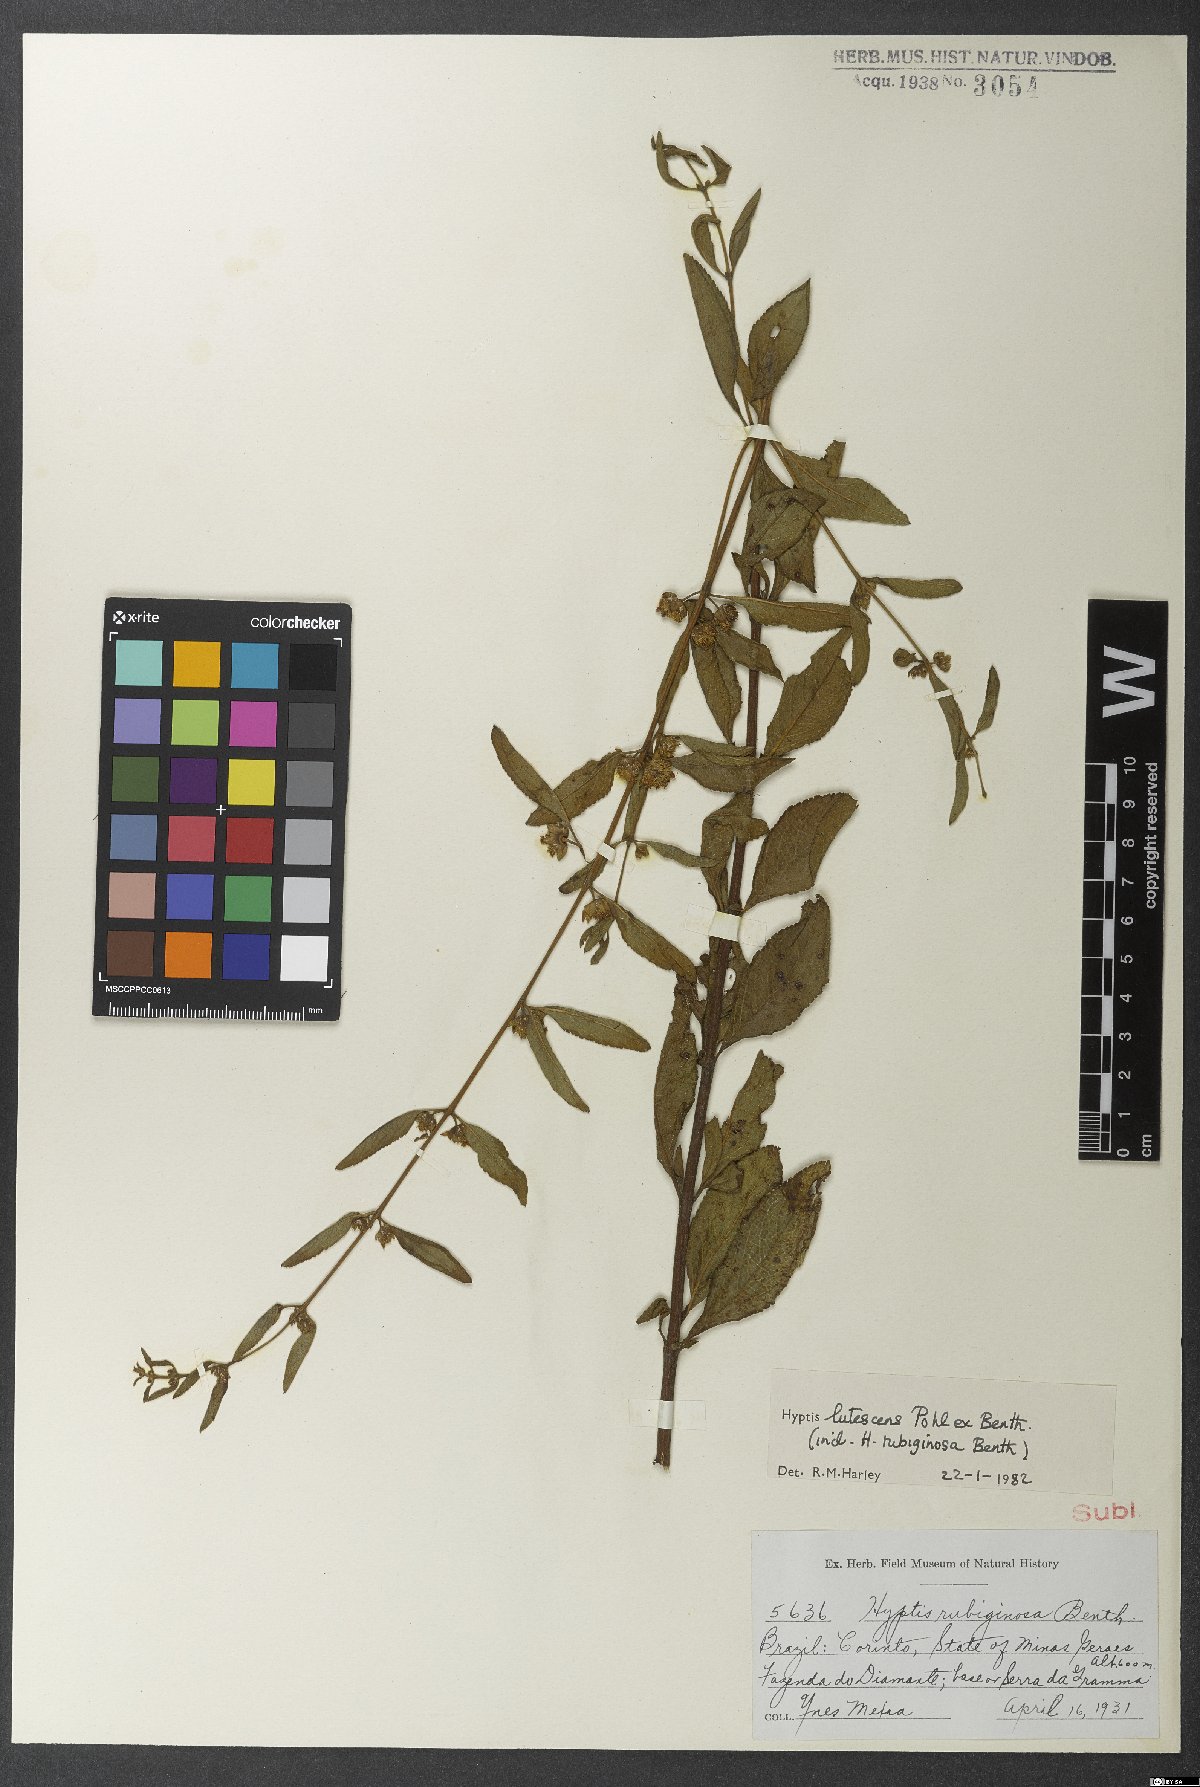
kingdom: Plantae
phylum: Tracheophyta
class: Magnoliopsida
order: Lamiales
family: Lamiaceae
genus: Hyptis
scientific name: Hyptis lutescens
